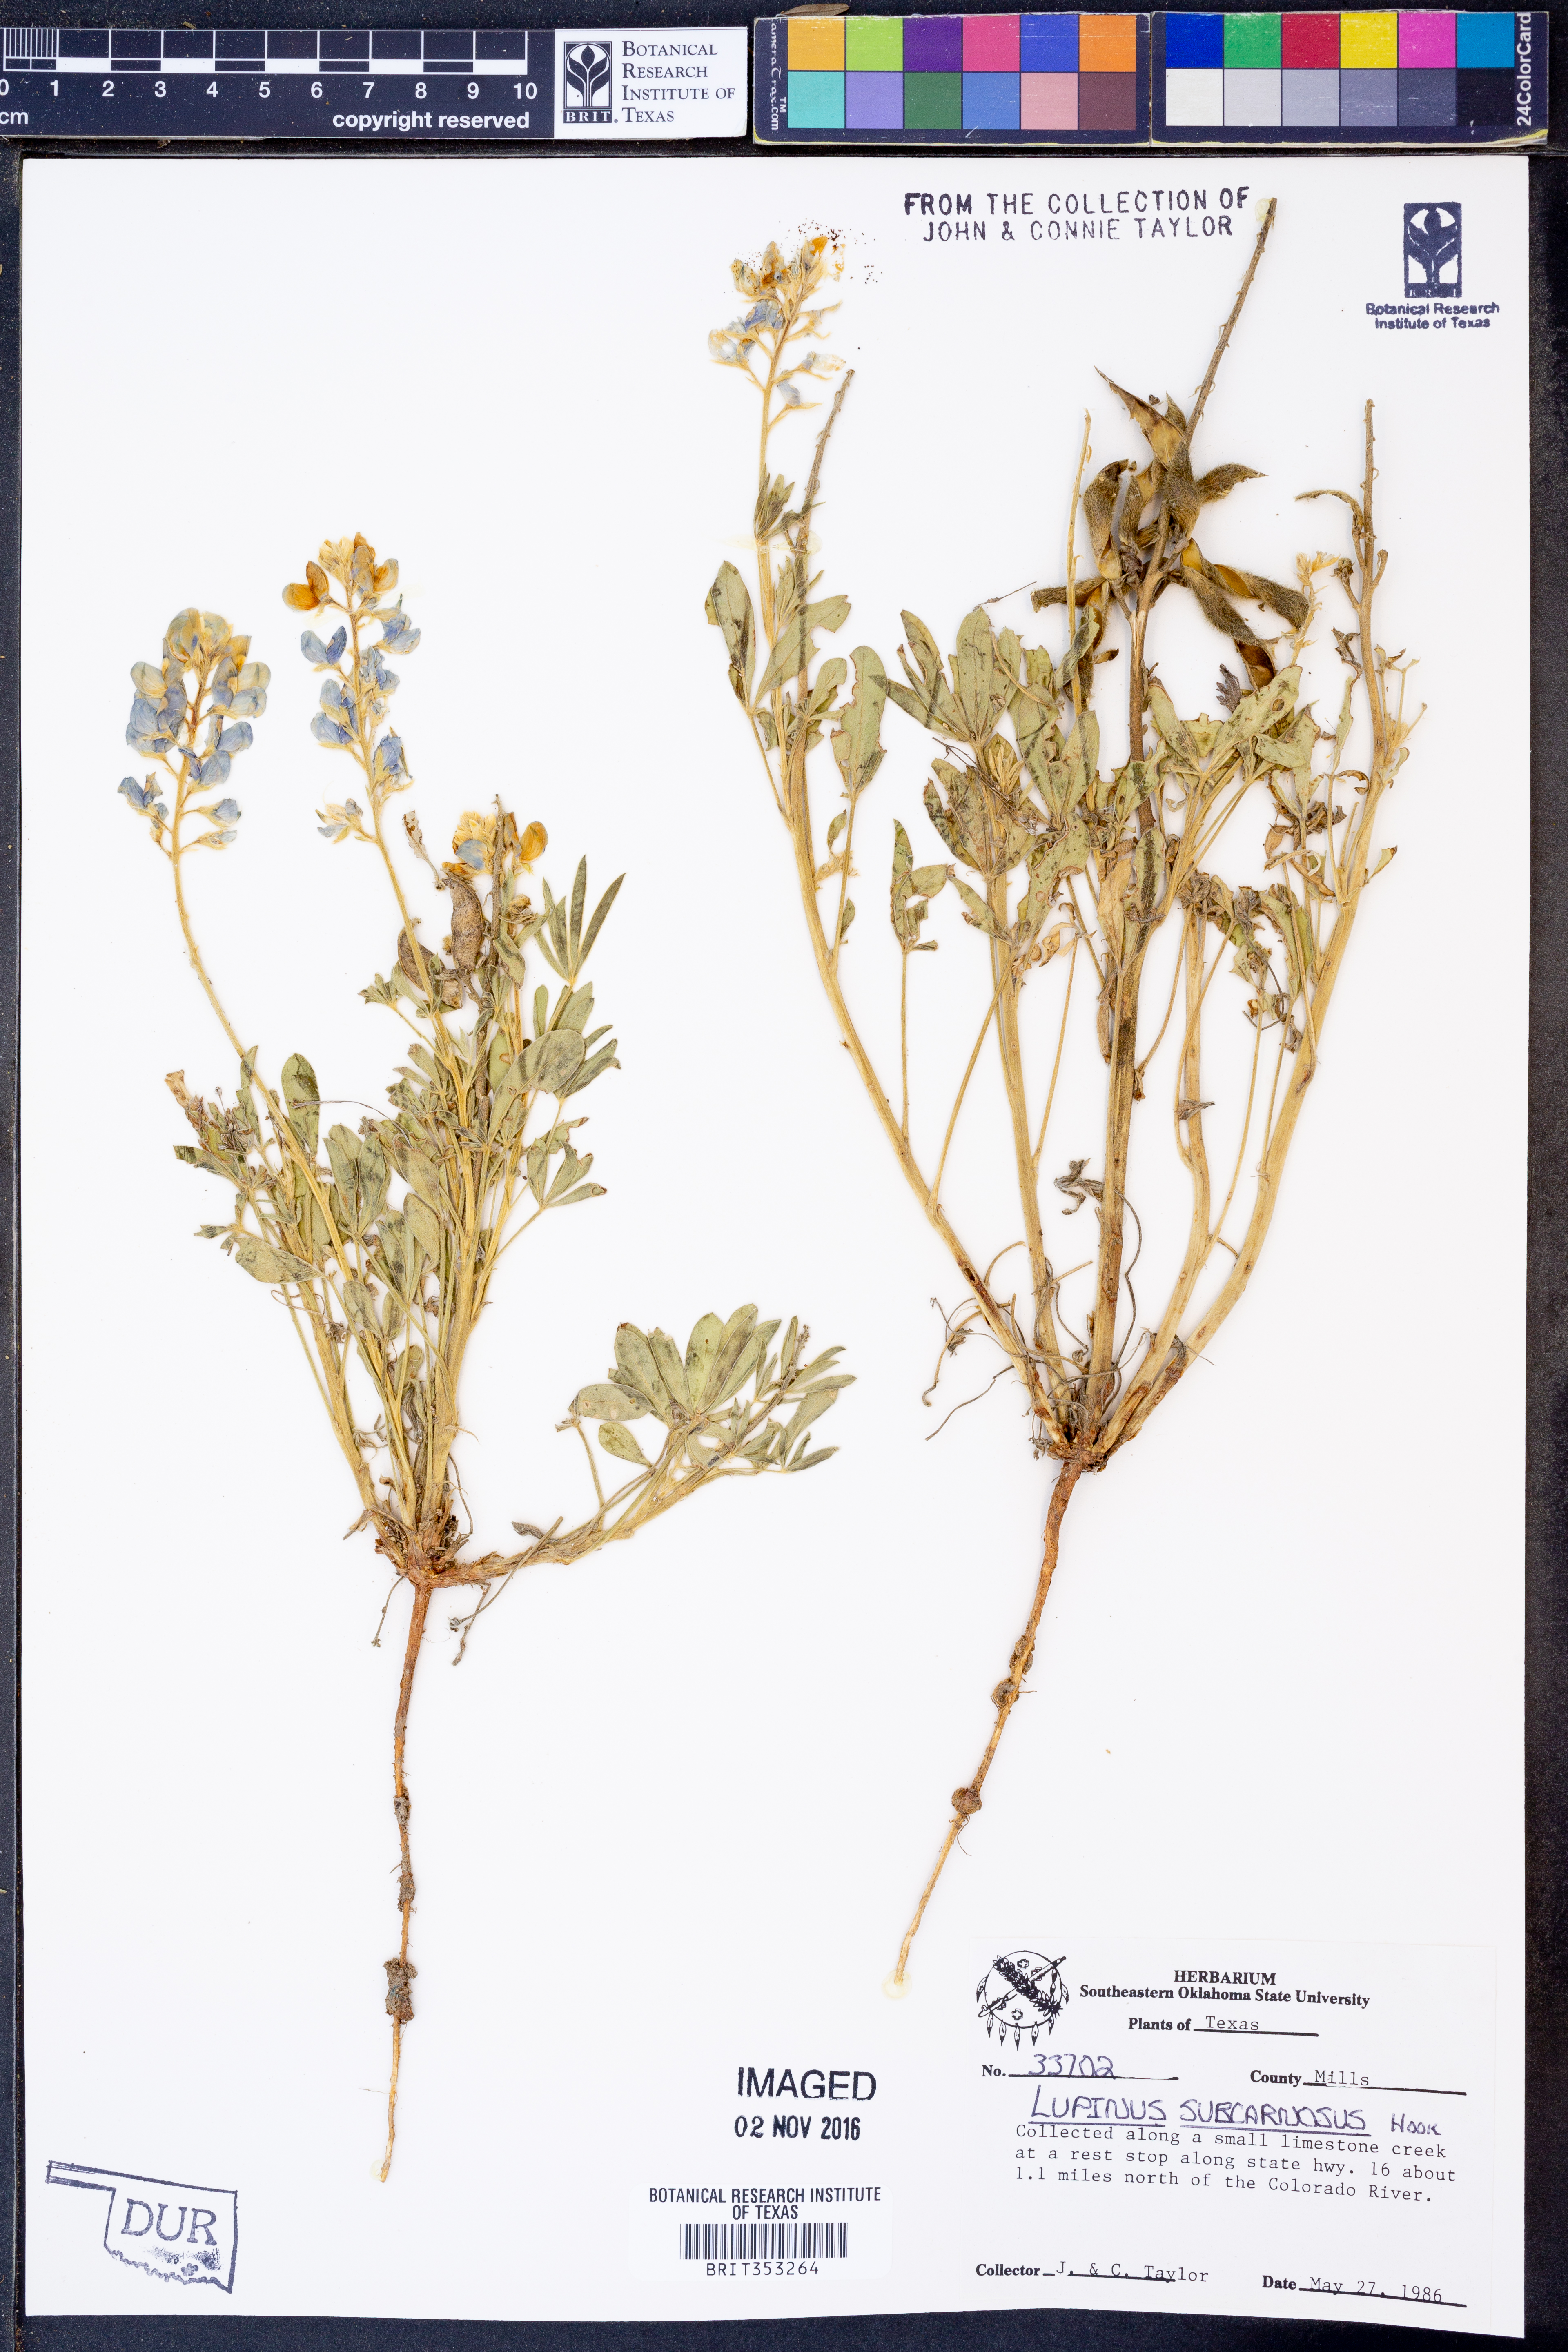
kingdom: Plantae
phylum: Tracheophyta
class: Magnoliopsida
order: Fabales
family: Fabaceae
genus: Lupinus
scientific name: Lupinus subcarnosus
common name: Texas bluebonnet
